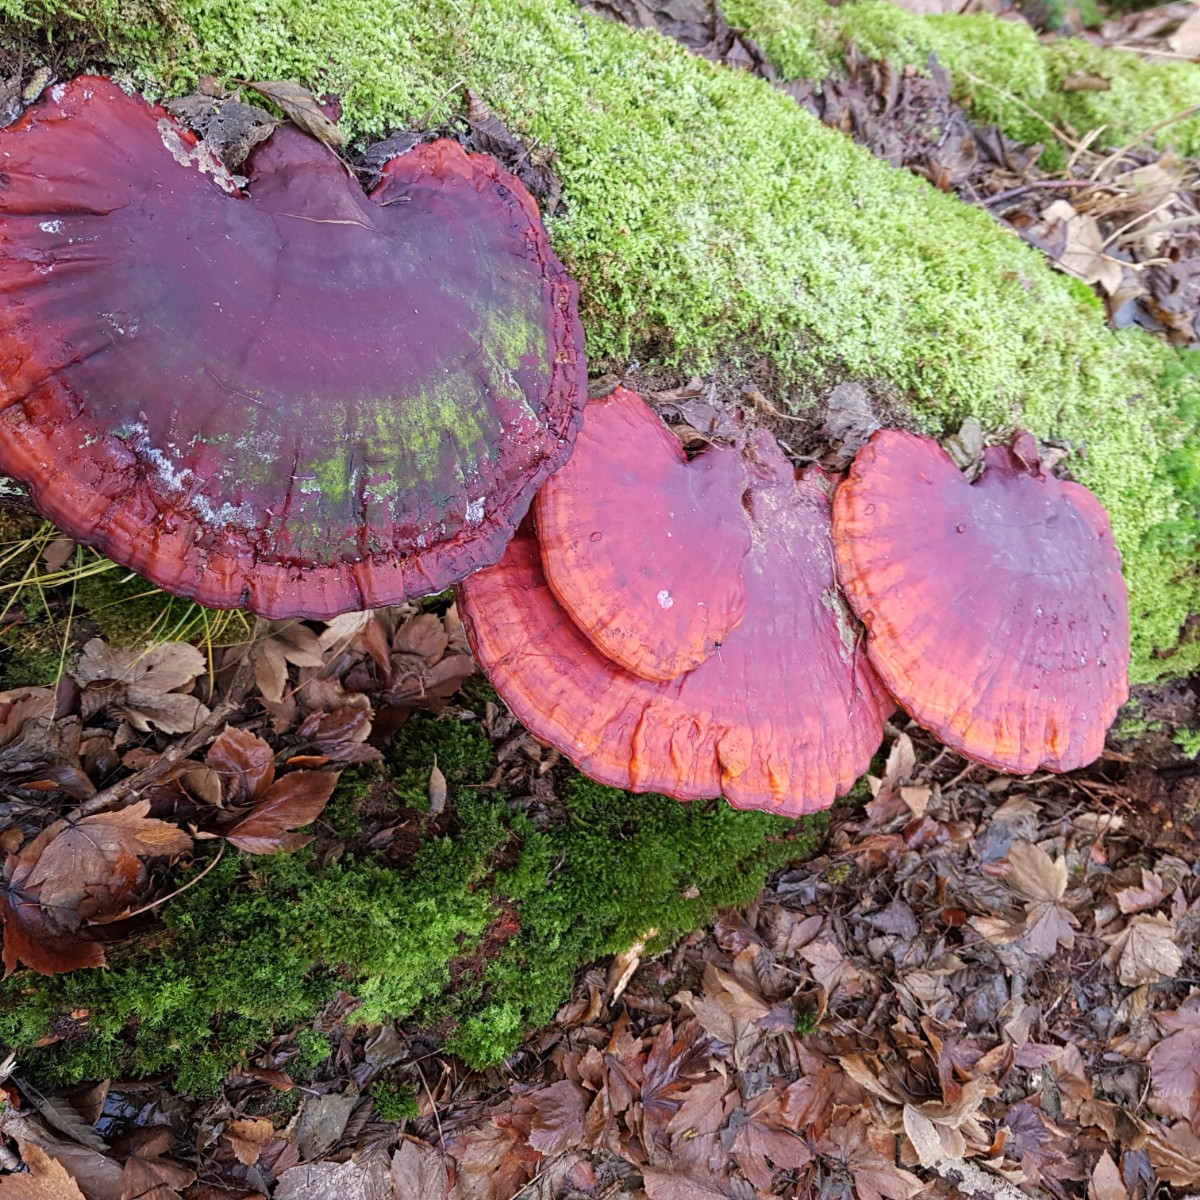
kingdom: Fungi
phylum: Basidiomycota
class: Agaricomycetes
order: Polyporales
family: Polyporaceae
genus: Ganoderma
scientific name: Ganoderma lucidum
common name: skinnende lakporesvamp
